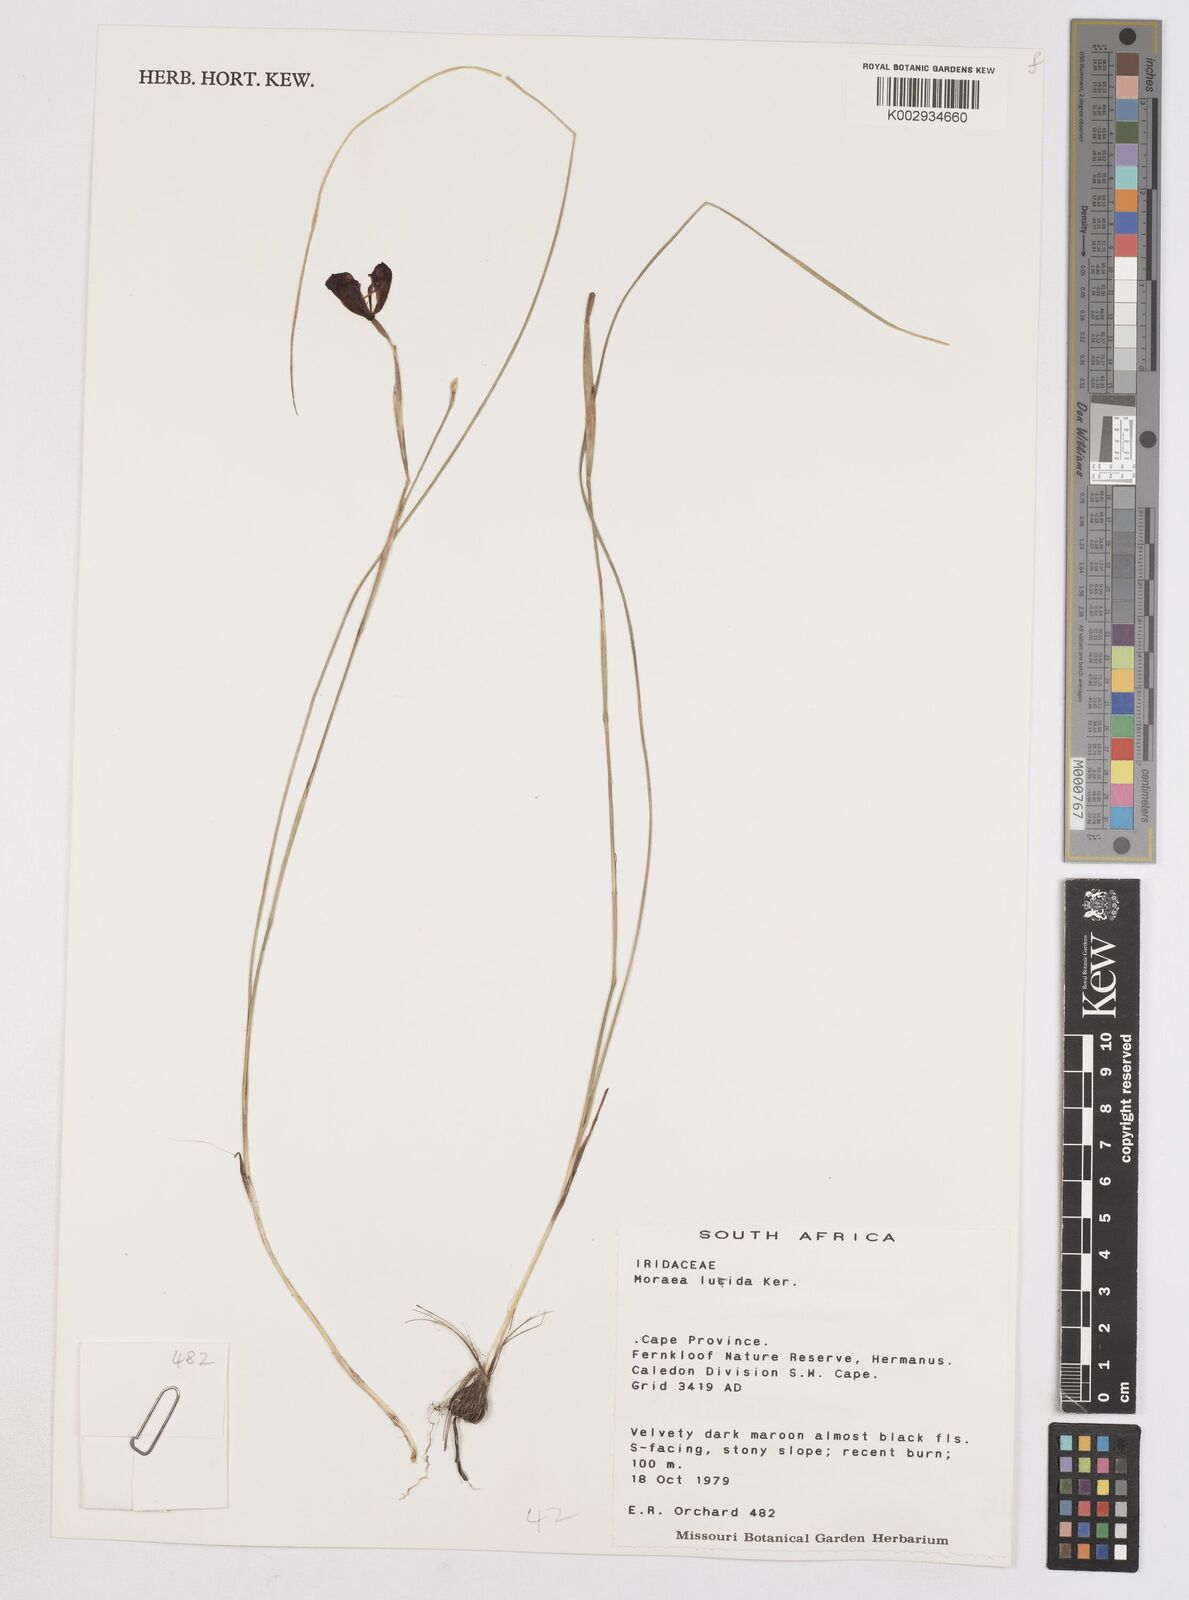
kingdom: Plantae
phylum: Tracheophyta
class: Liliopsida
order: Asparagales
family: Iridaceae
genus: Moraea
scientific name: Moraea lurida
